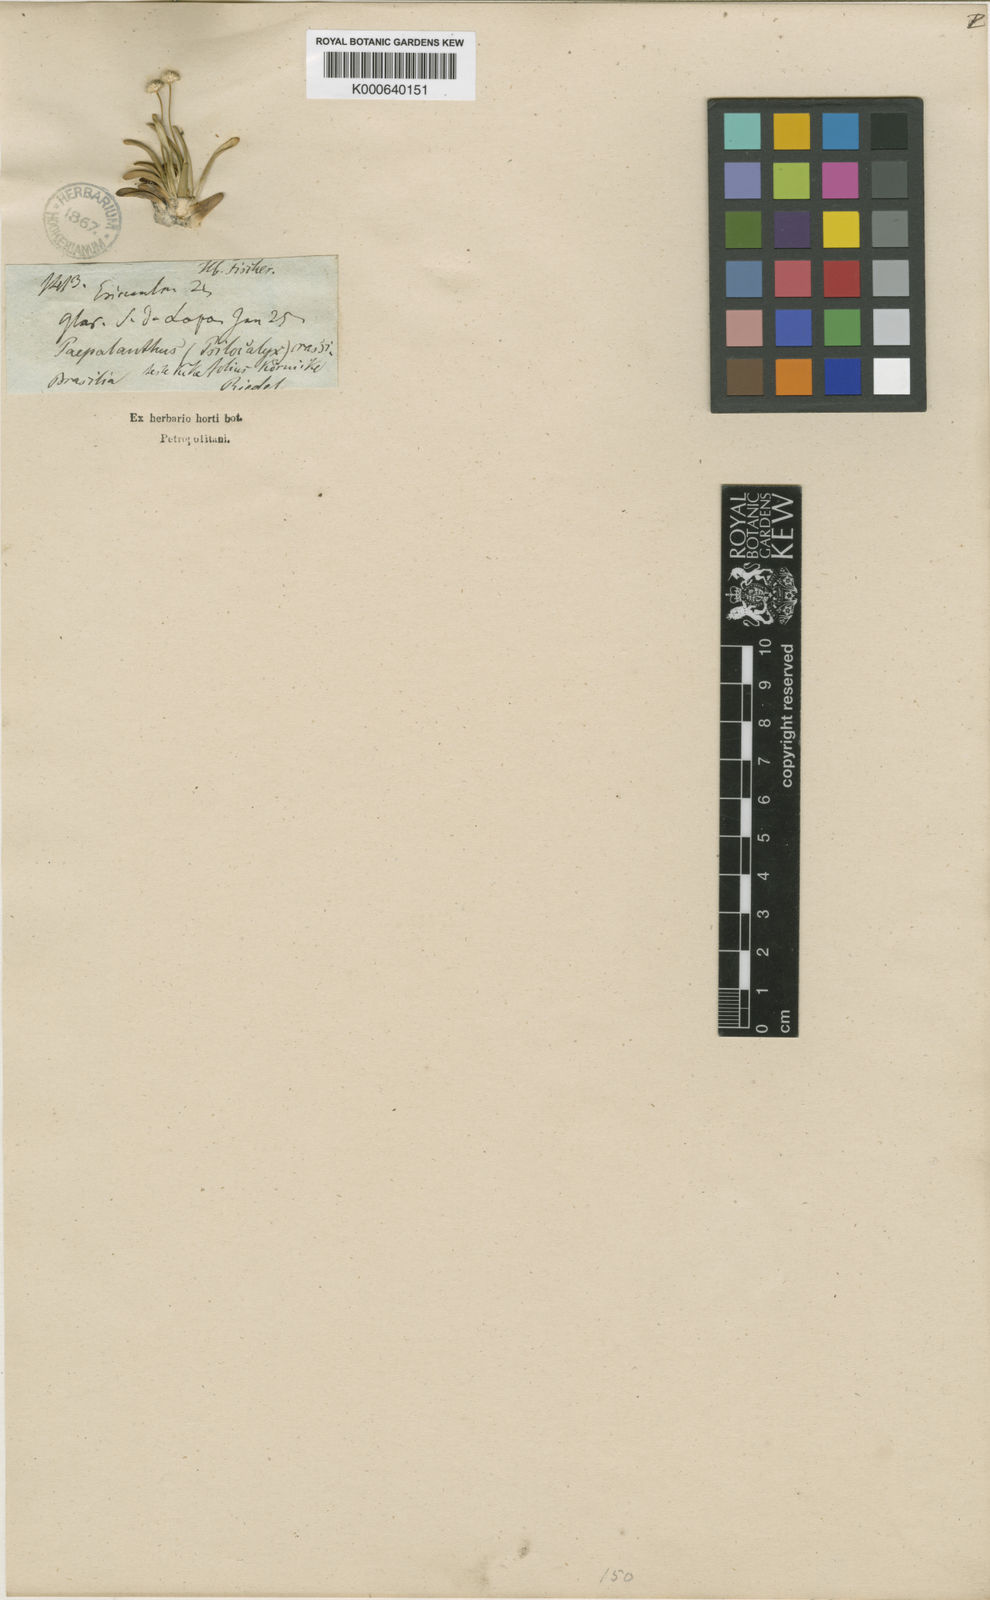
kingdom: Plantae
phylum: Tracheophyta
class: Liliopsida
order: Poales
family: Eriocaulaceae
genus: Leiothrix
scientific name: Leiothrix crassifolia
